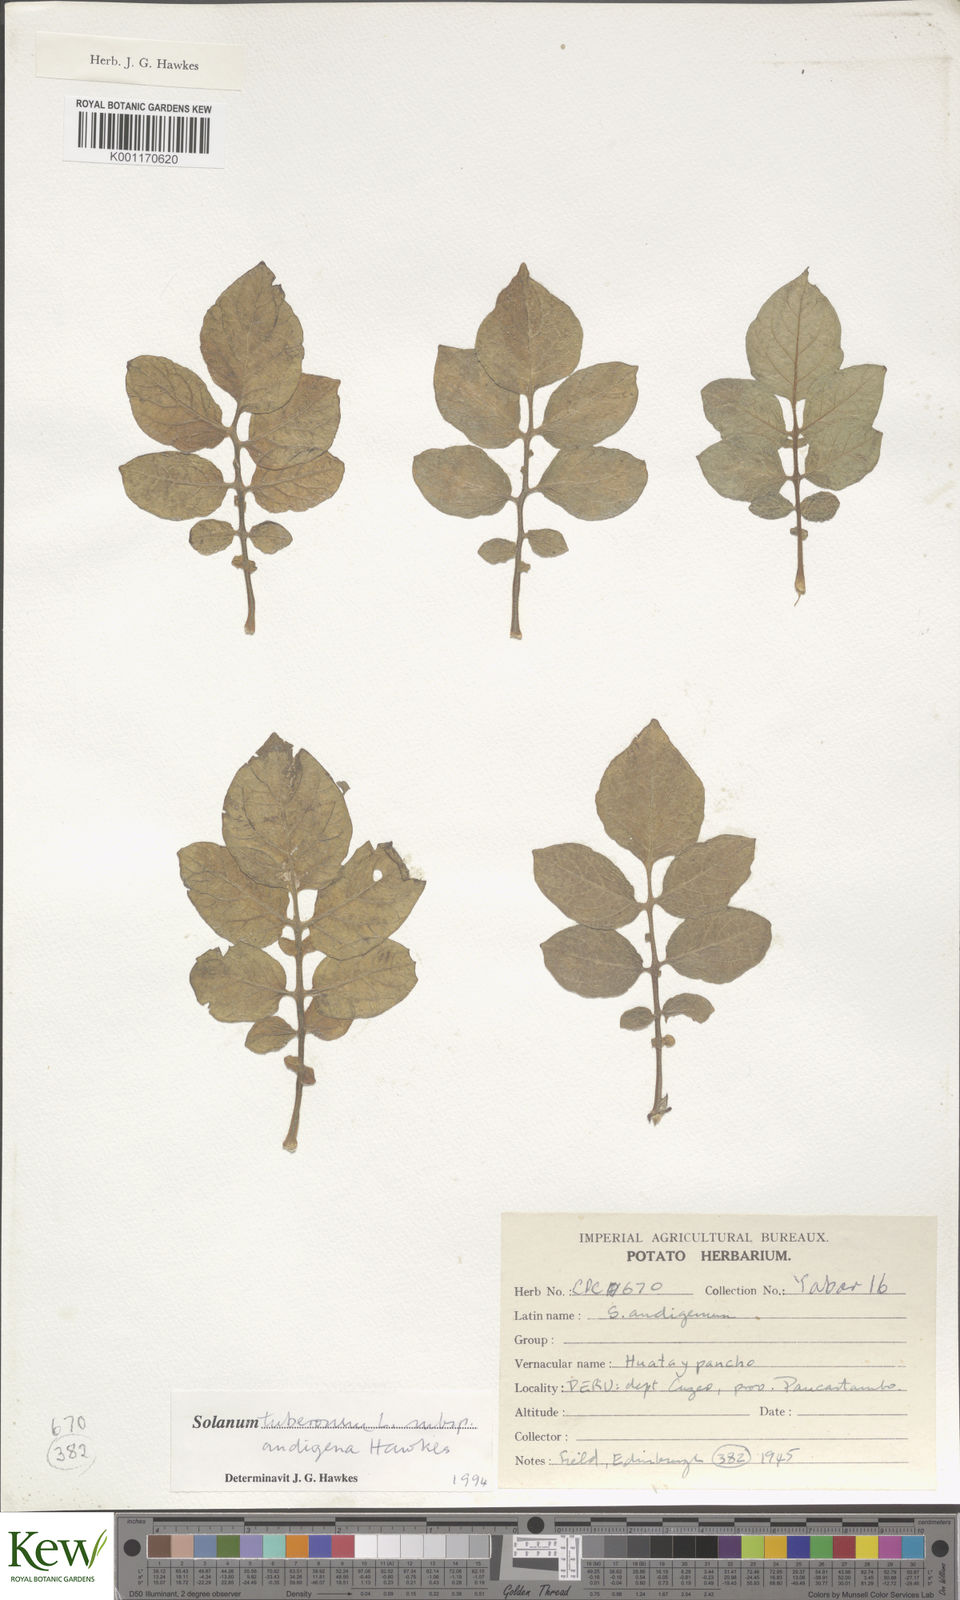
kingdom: Plantae
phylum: Tracheophyta
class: Magnoliopsida
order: Solanales
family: Solanaceae
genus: Solanum
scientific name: Solanum tuberosum
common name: Potato
